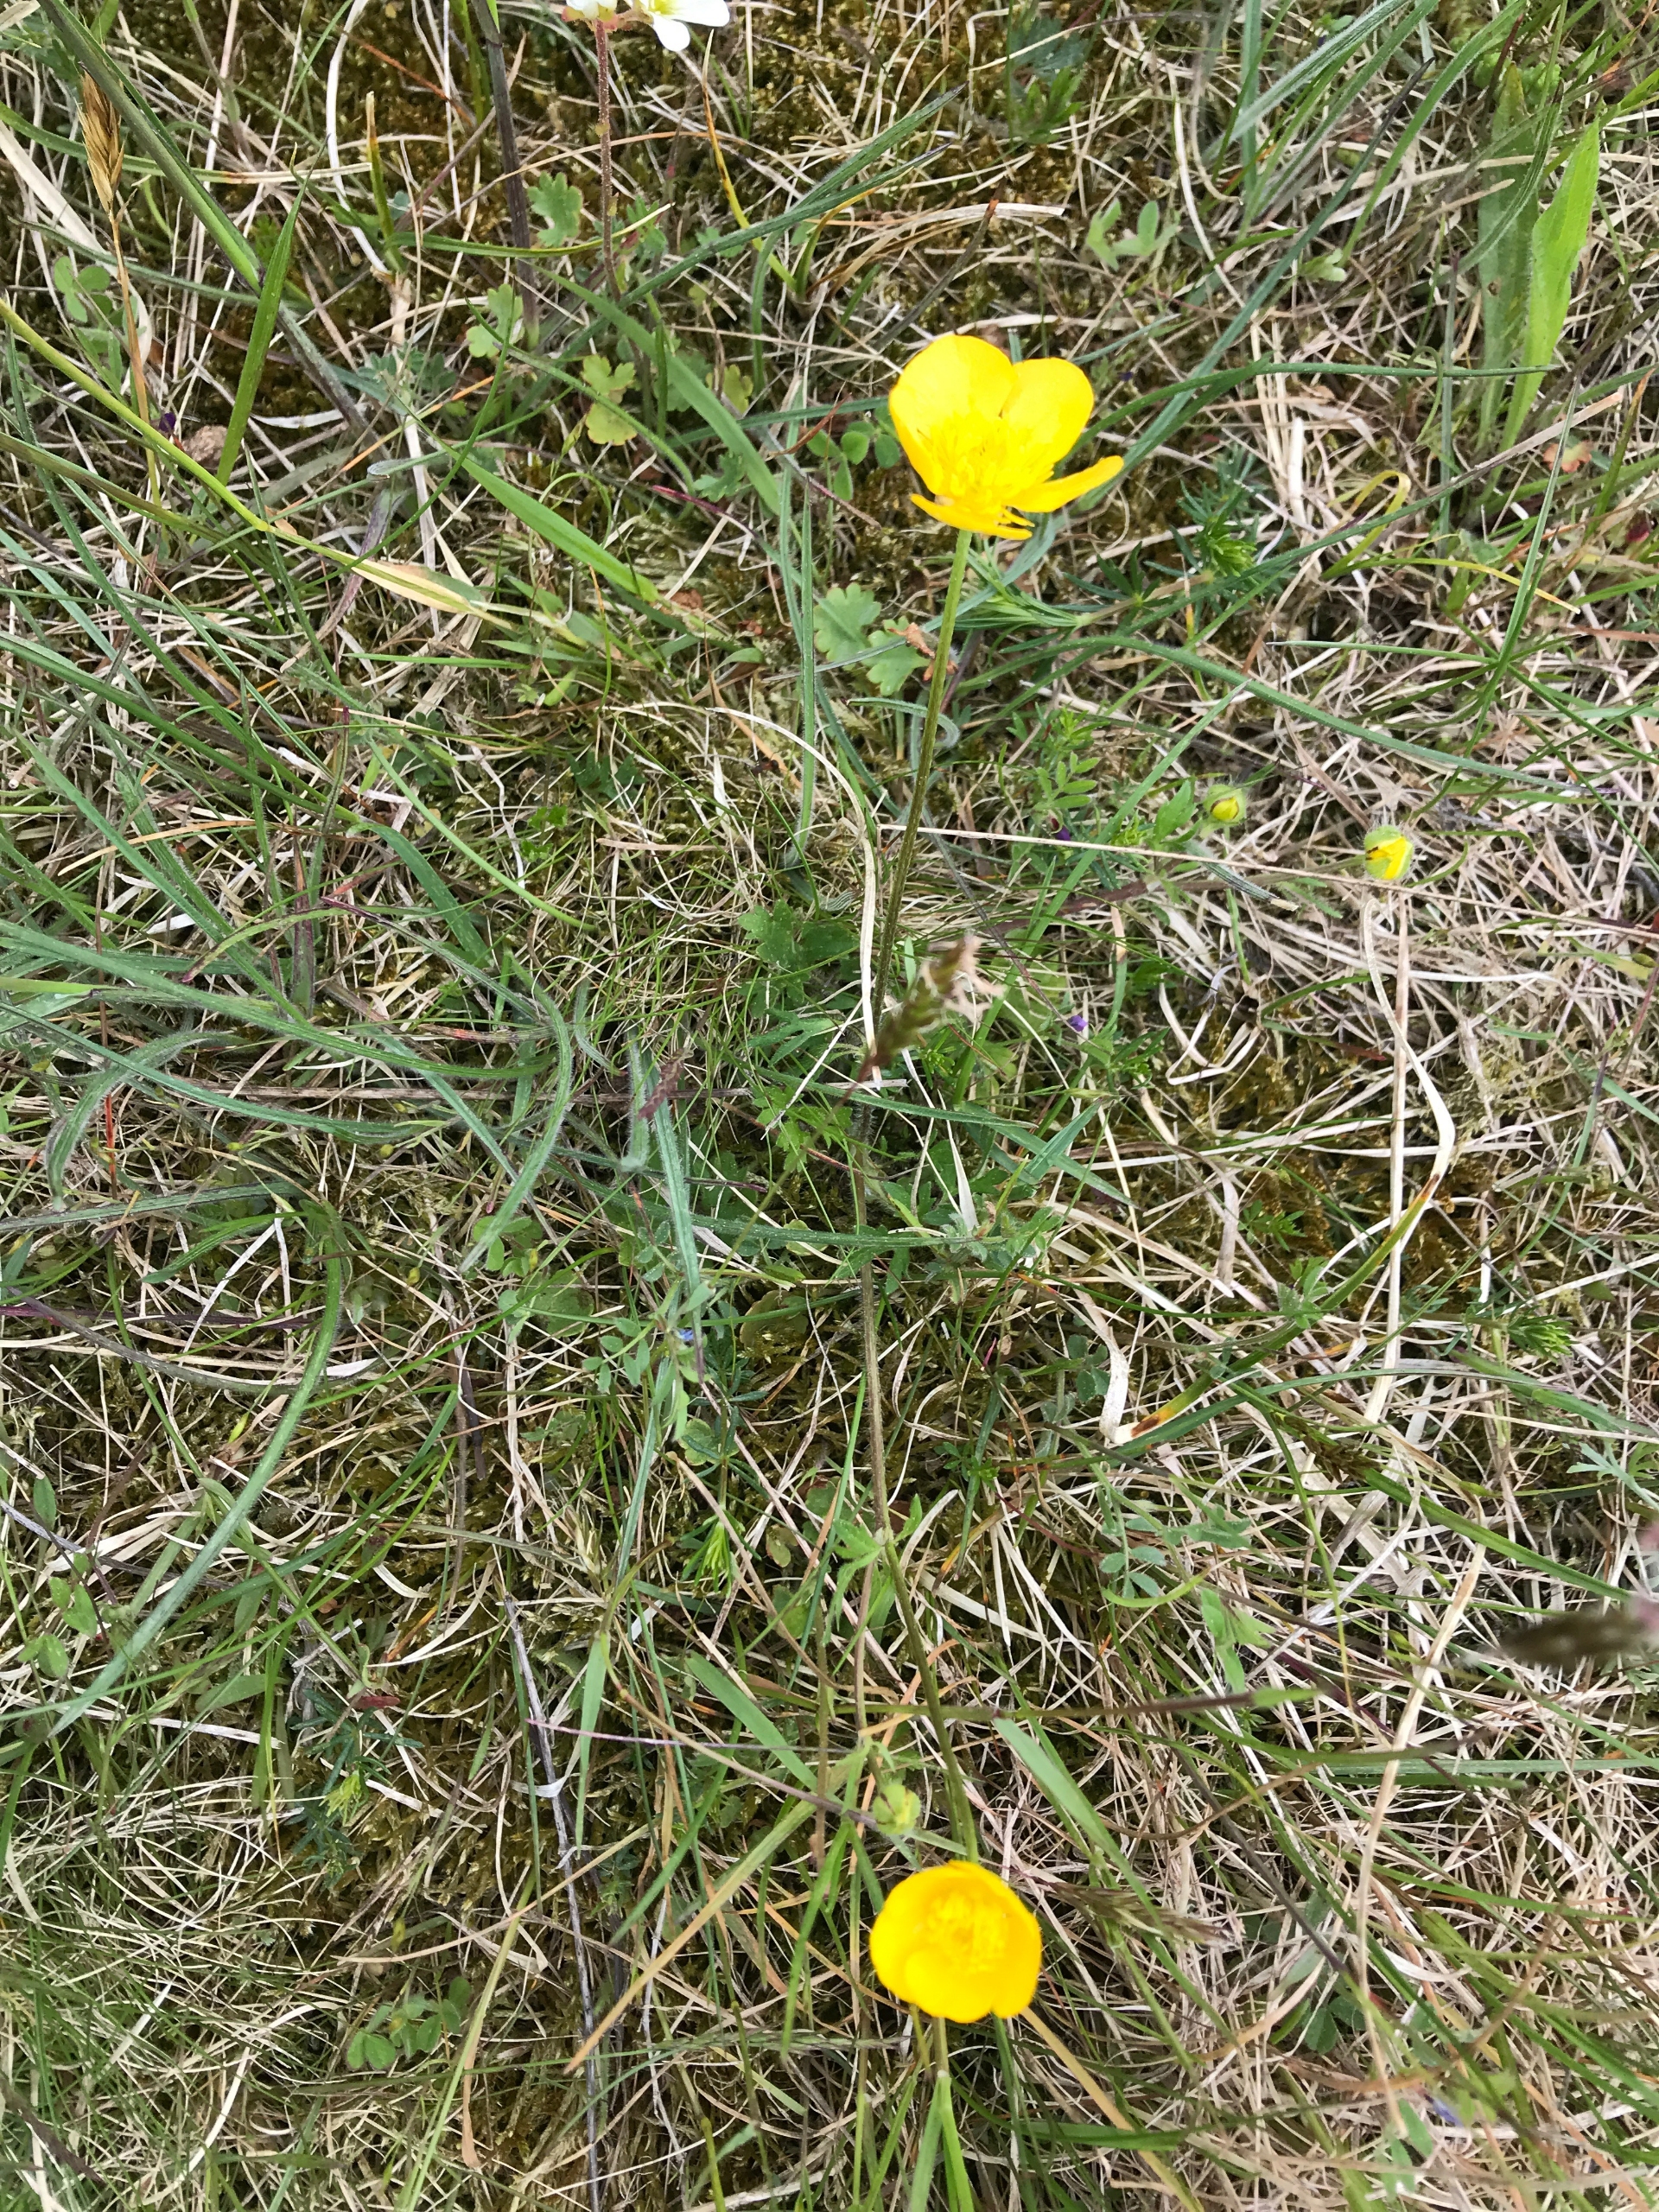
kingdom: Plantae
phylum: Tracheophyta
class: Magnoliopsida
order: Ranunculales
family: Ranunculaceae
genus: Ranunculus
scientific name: Ranunculus bulbosus
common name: Knold-ranunkel
